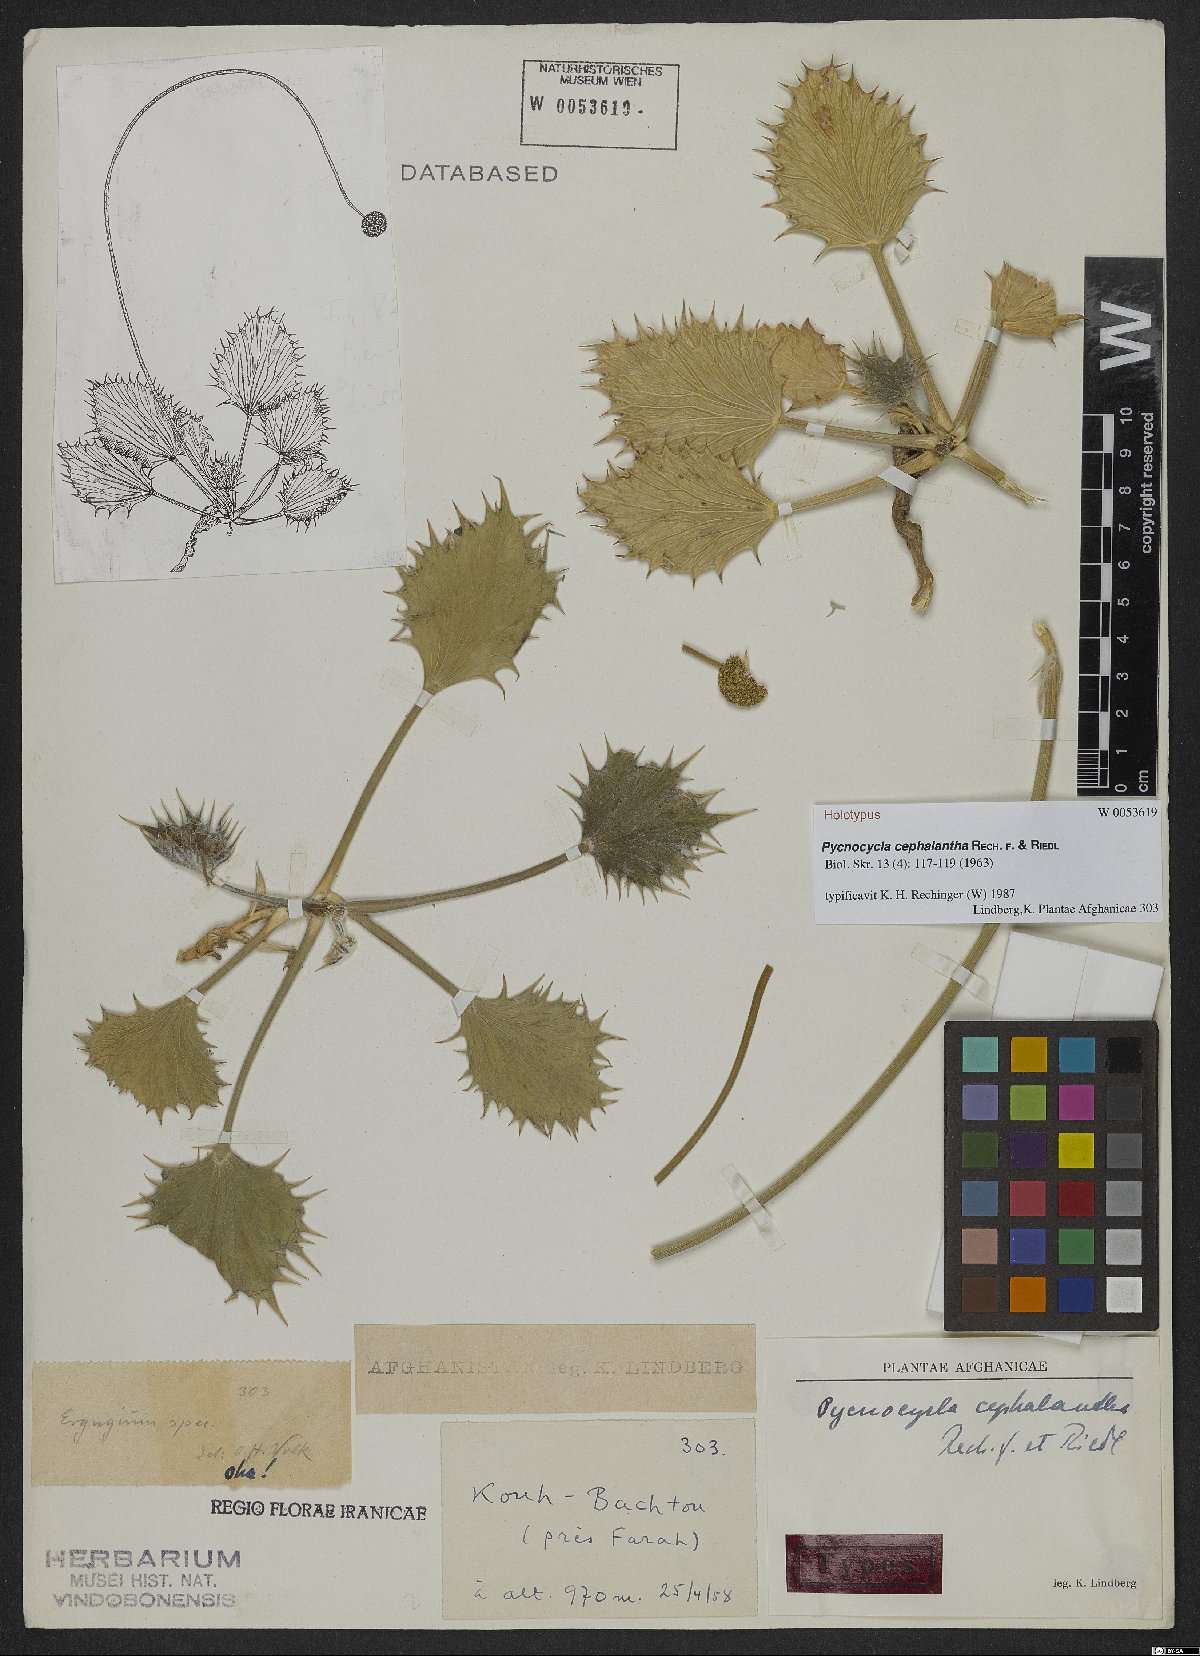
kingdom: Plantae
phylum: Tracheophyta
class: Magnoliopsida
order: Apiales
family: Apiaceae
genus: Pycnocycla
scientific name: Pycnocycla cephalantha
